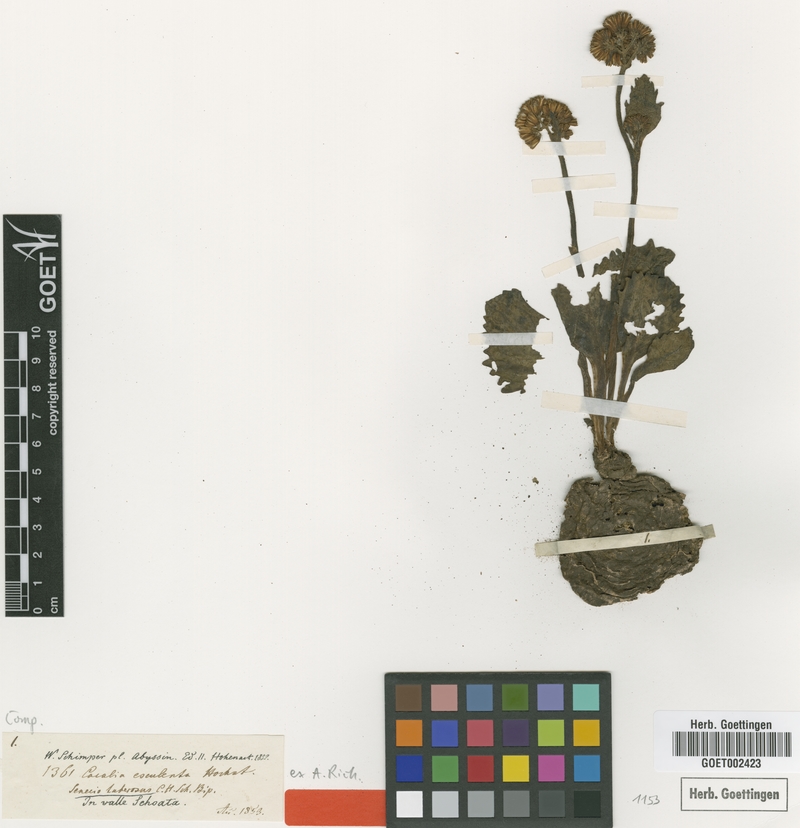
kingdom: Plantae
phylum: Tracheophyta
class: Magnoliopsida
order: Asterales
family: Asteraceae
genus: Solanecio
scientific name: Solanecio tuberosus
